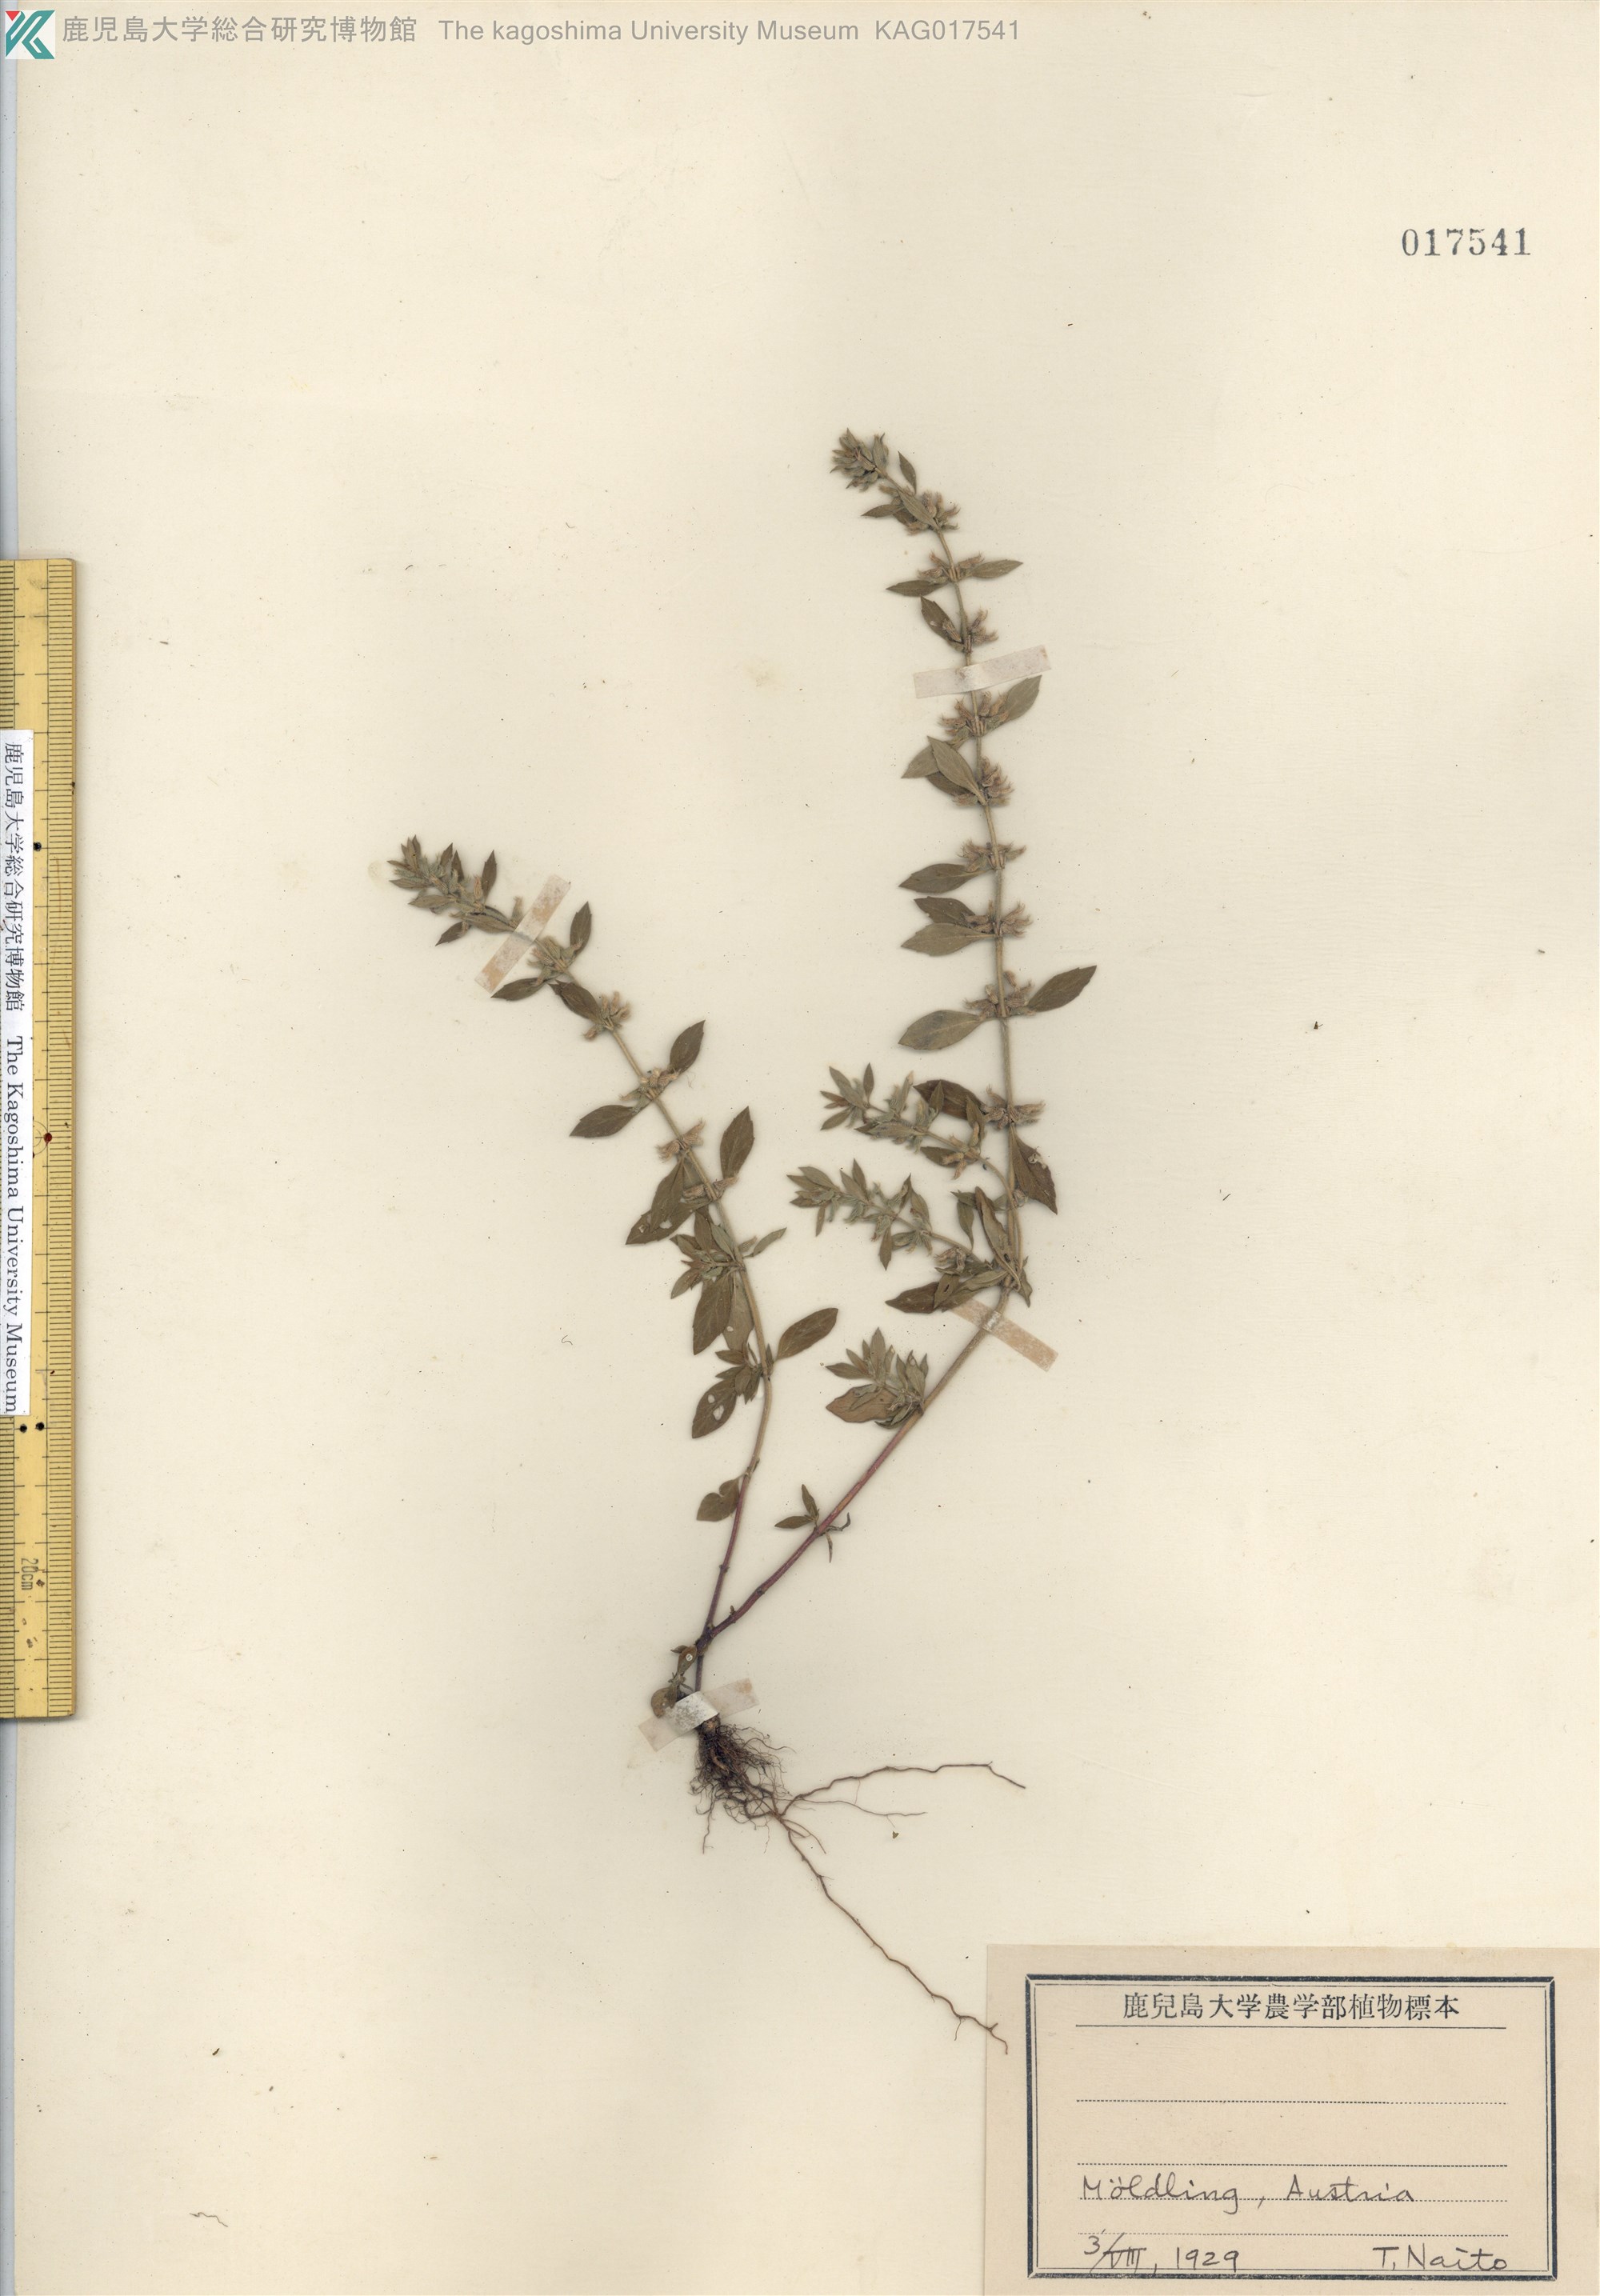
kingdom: Plantae
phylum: Tracheophyta
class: Magnoliopsida
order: Lamiales
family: Lamiaceae
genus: Clinopodium
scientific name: Clinopodium acinos
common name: Basil thyme
